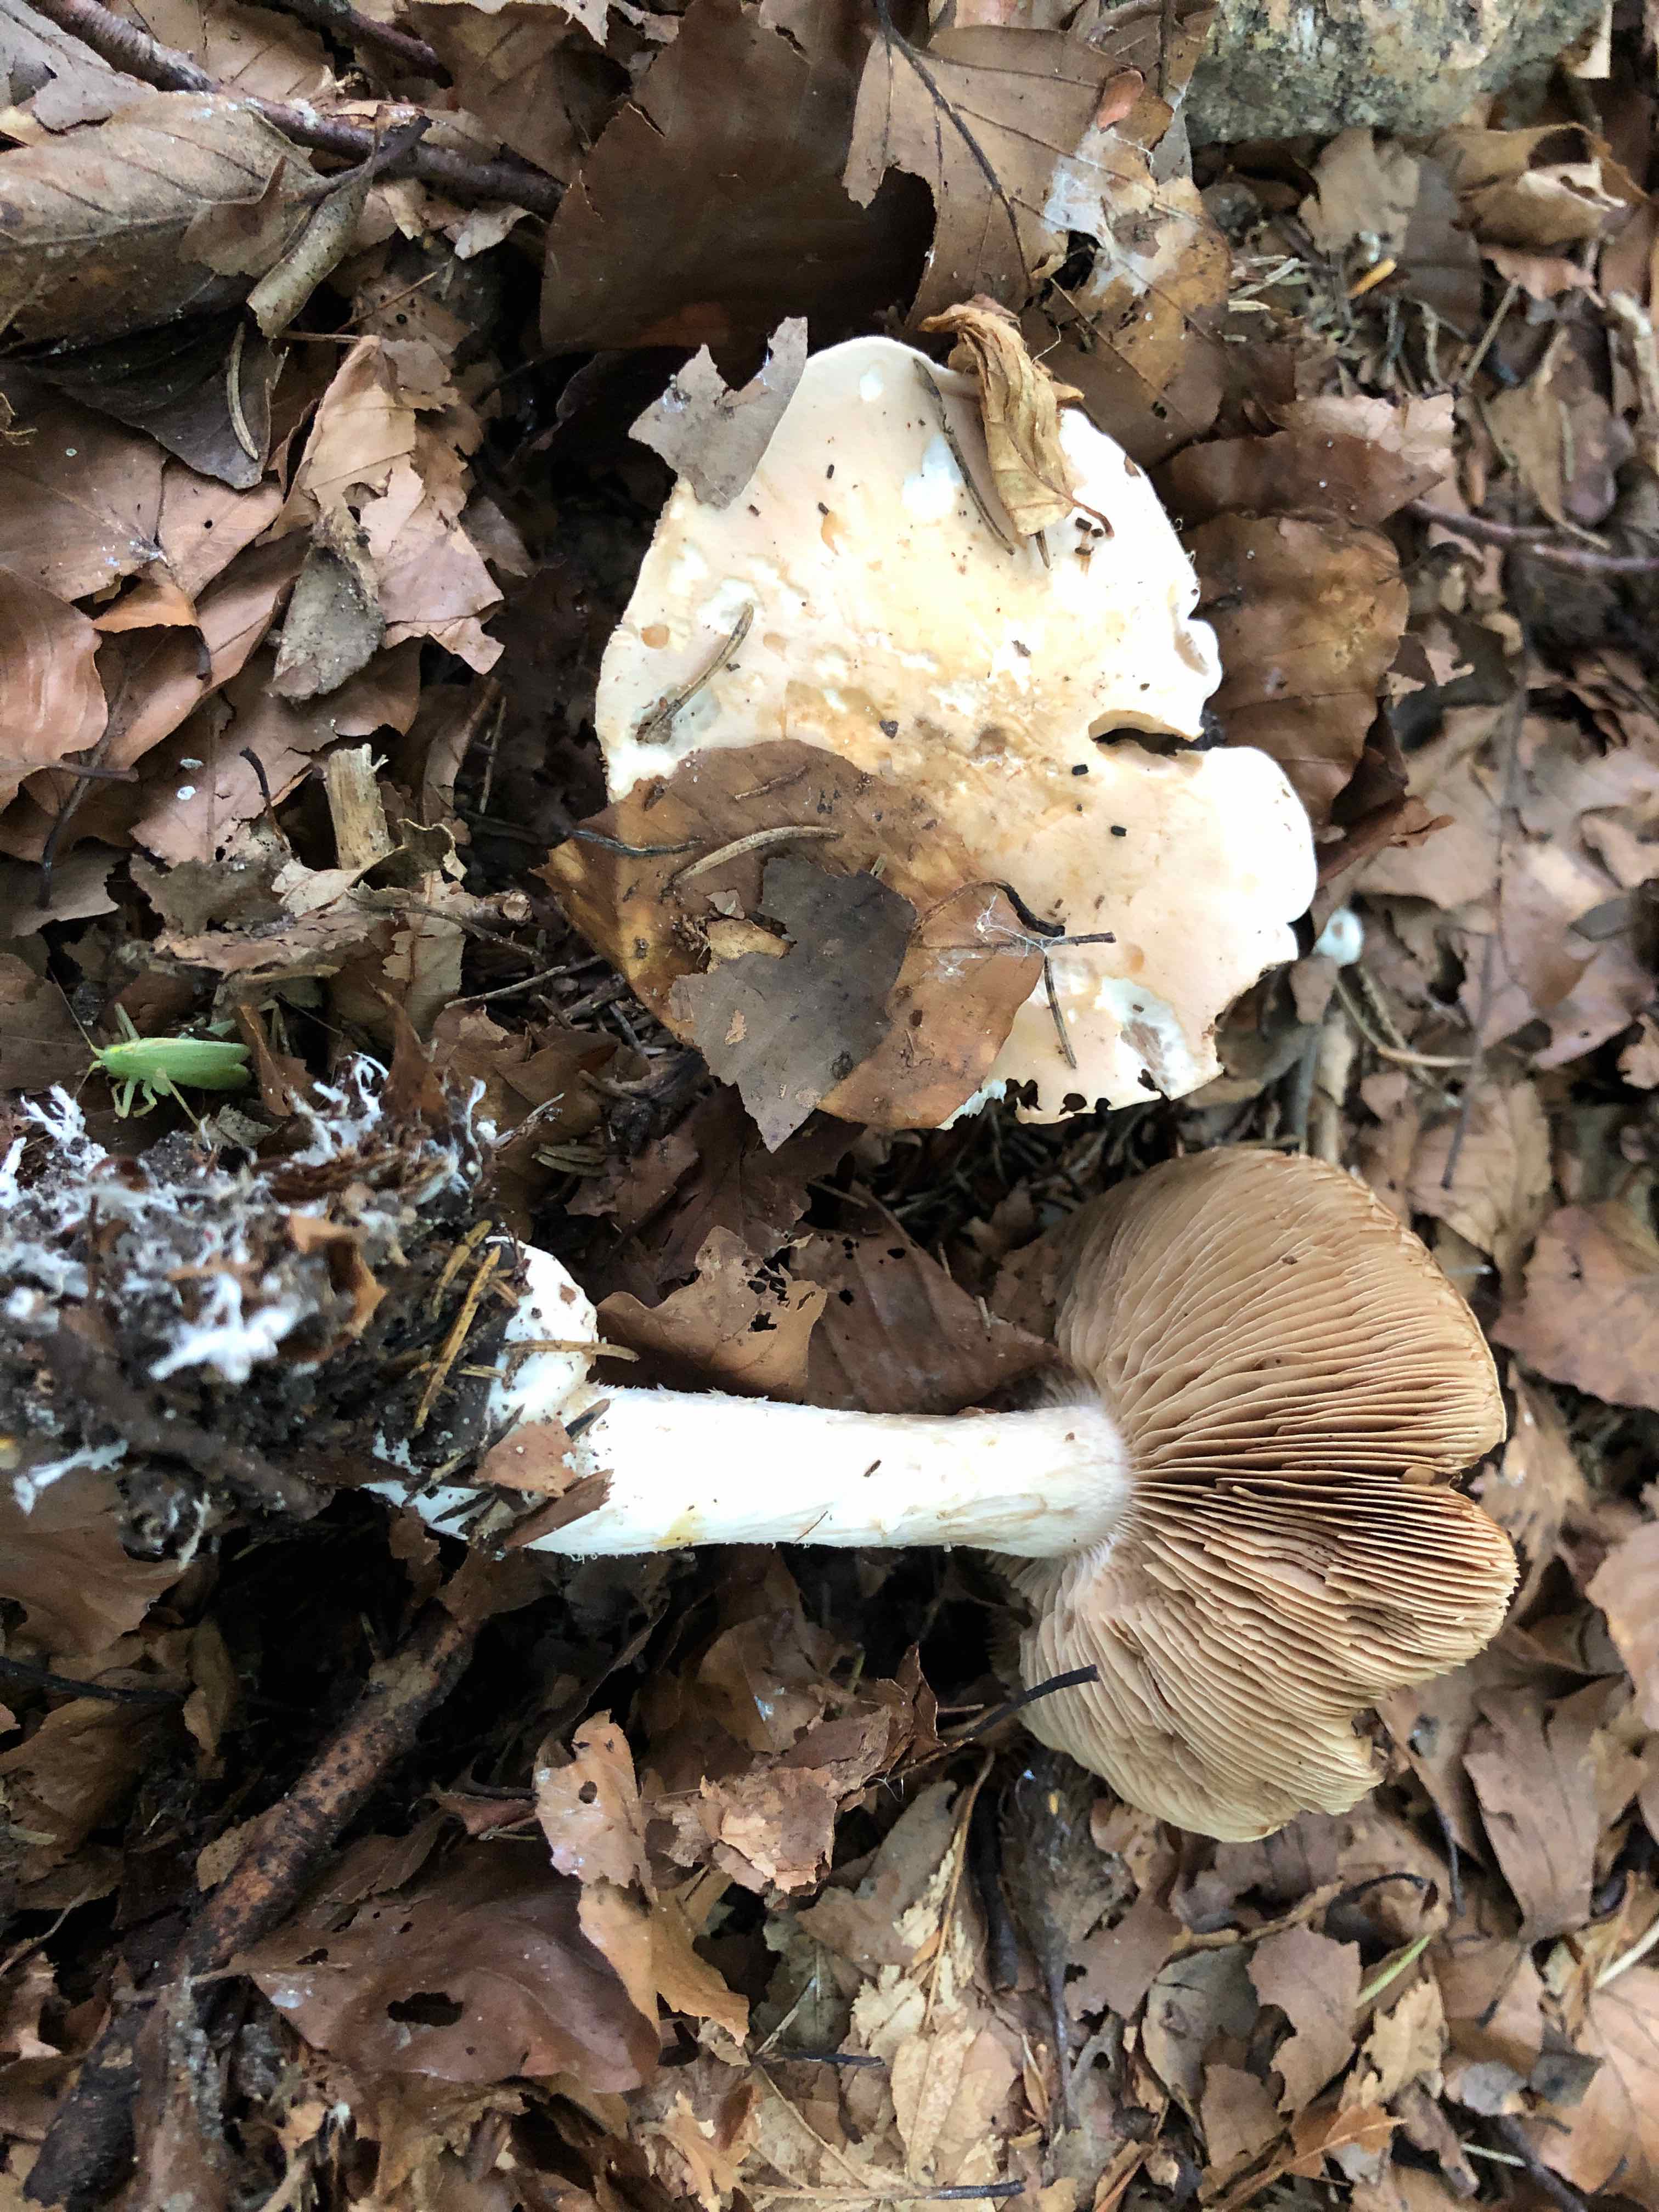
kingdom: Fungi
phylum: Basidiomycota
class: Agaricomycetes
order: Agaricales
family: Hymenogastraceae
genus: Hebeloma
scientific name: Hebeloma sinapizans
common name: ræddike-tåreblad
